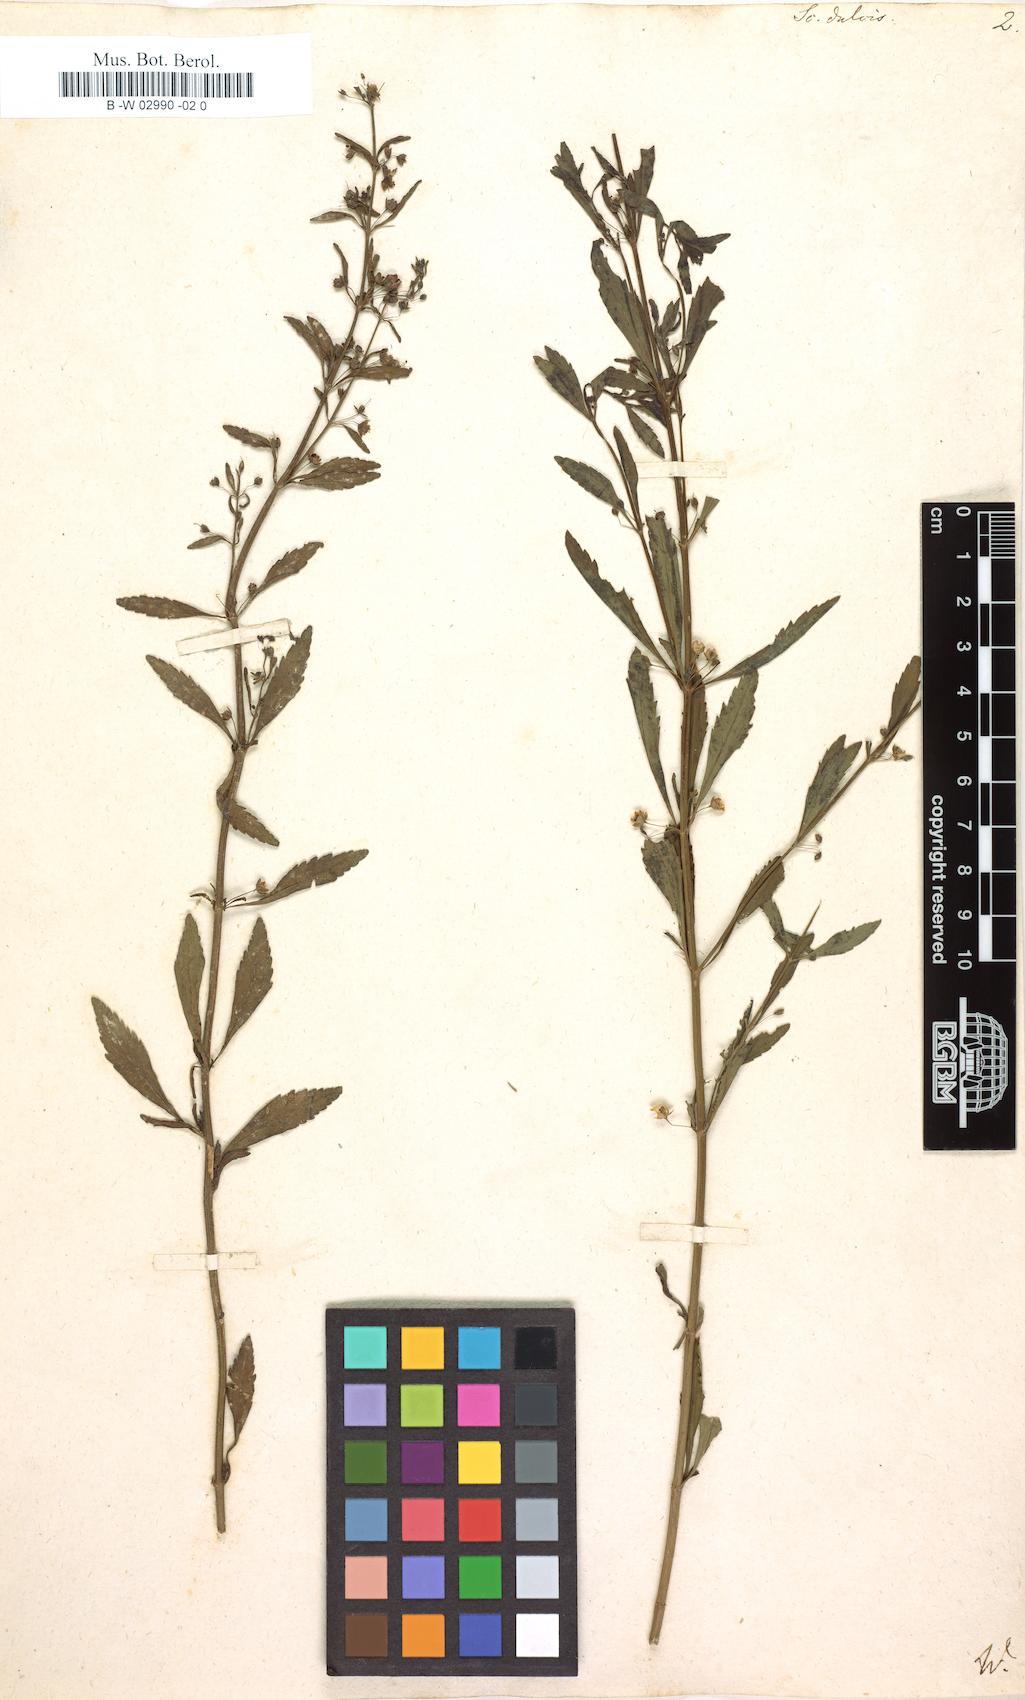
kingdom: Plantae
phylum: Tracheophyta
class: Magnoliopsida
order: Lamiales
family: Plantaginaceae
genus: Scoparia
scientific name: Scoparia dulcis
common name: Scoparia-weed
